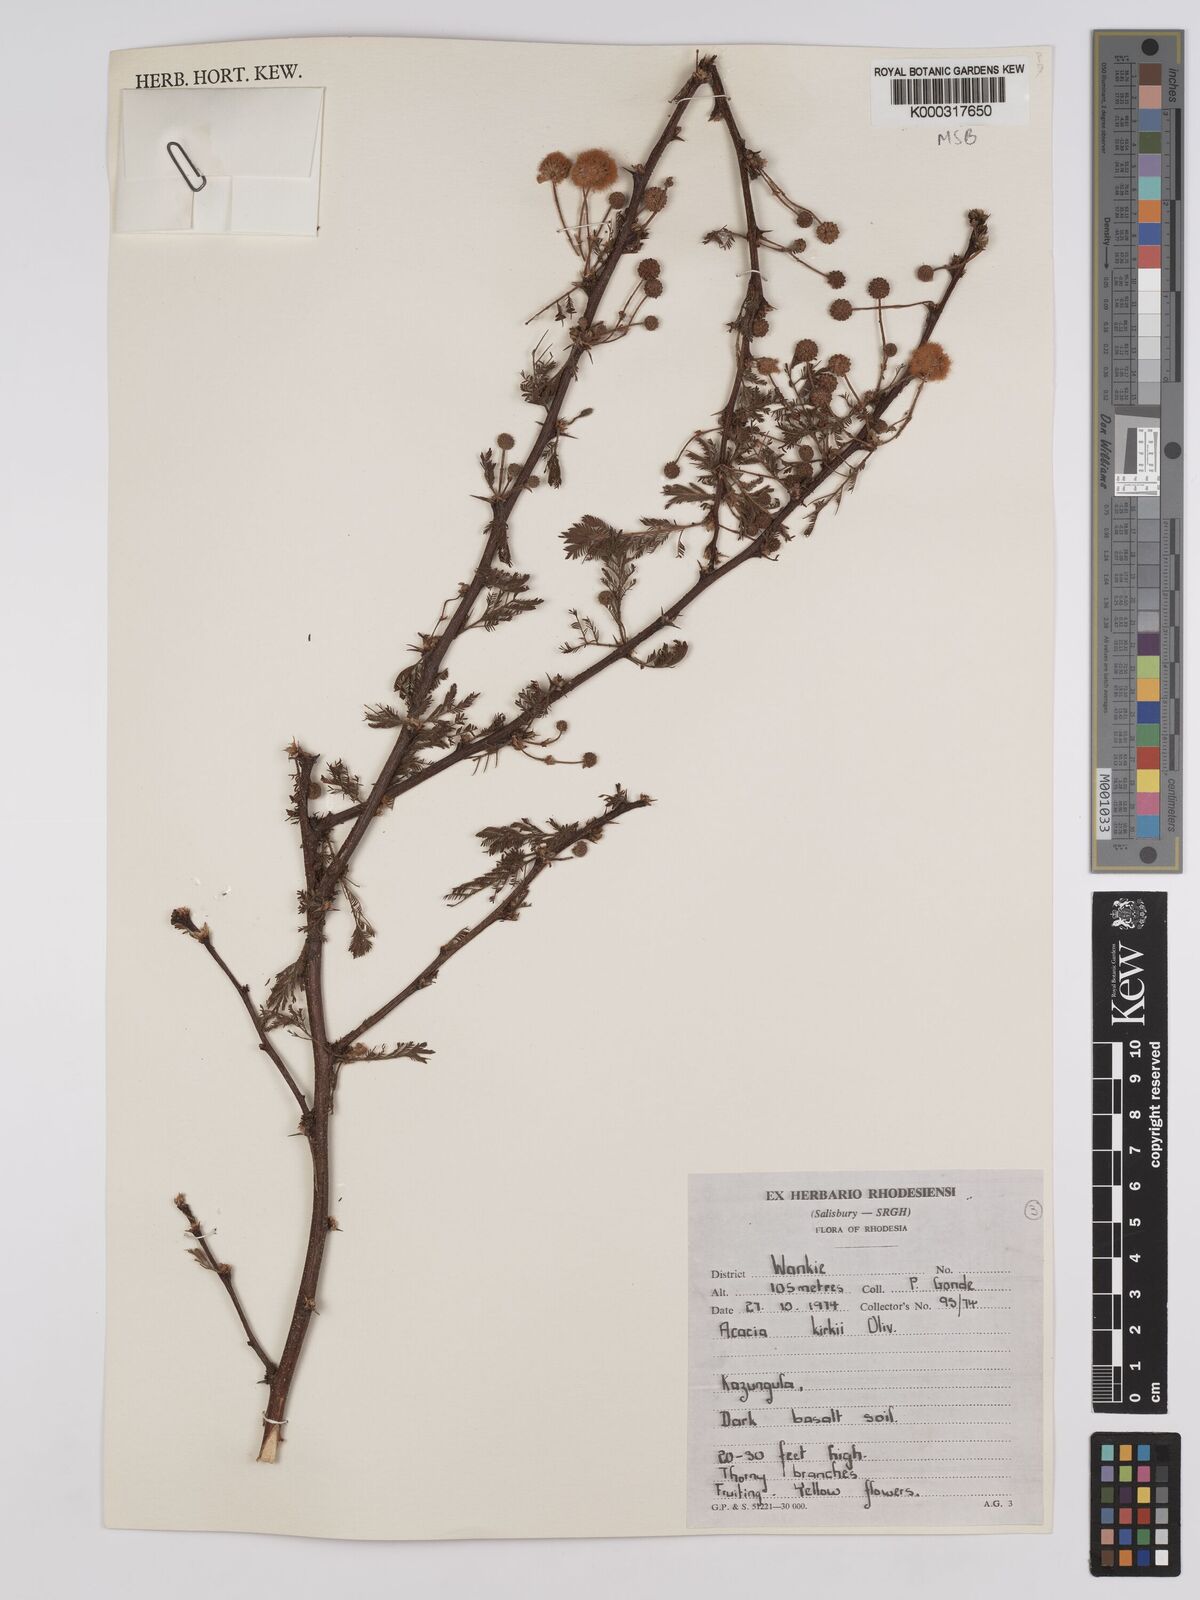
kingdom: Plantae
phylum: Tracheophyta
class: Magnoliopsida
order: Fabales
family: Fabaceae
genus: Vachellia
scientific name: Vachellia kirkii
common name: Flood-plain acacia
